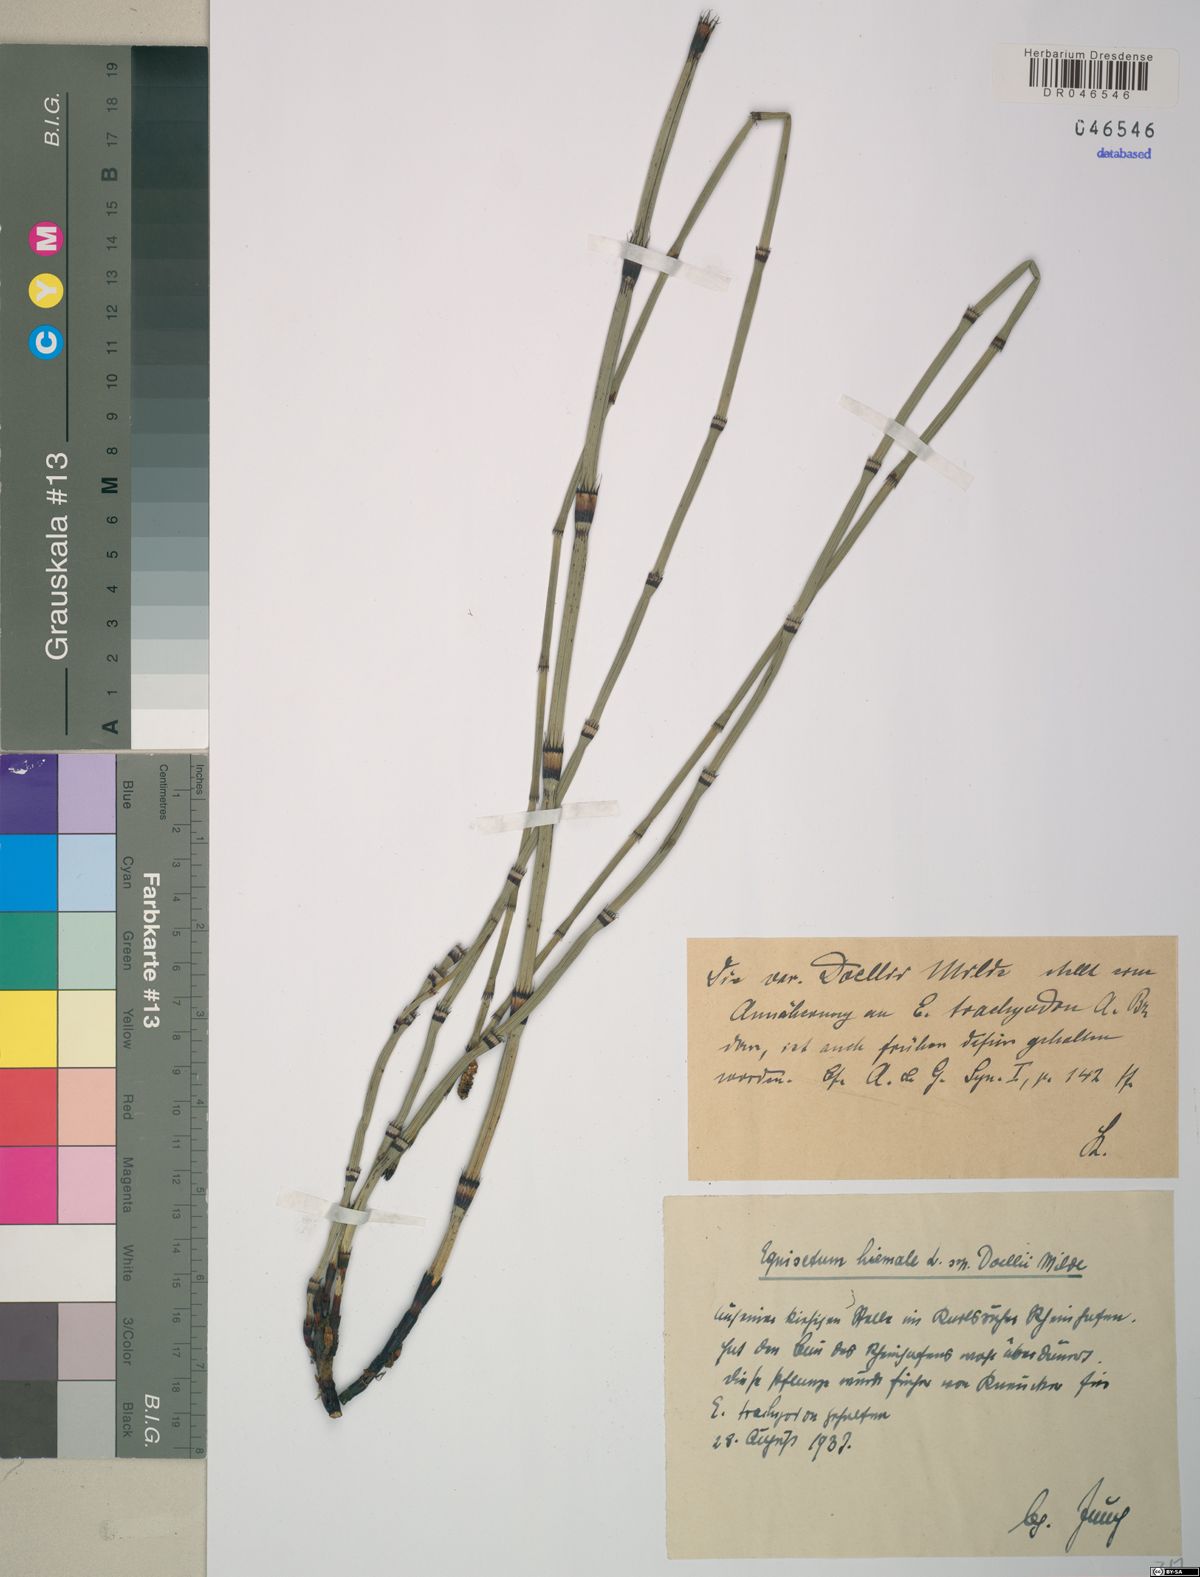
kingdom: Plantae
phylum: Tracheophyta
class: Polypodiopsida
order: Equisetales
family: Equisetaceae
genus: Equisetum
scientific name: Equisetum trachyodon
